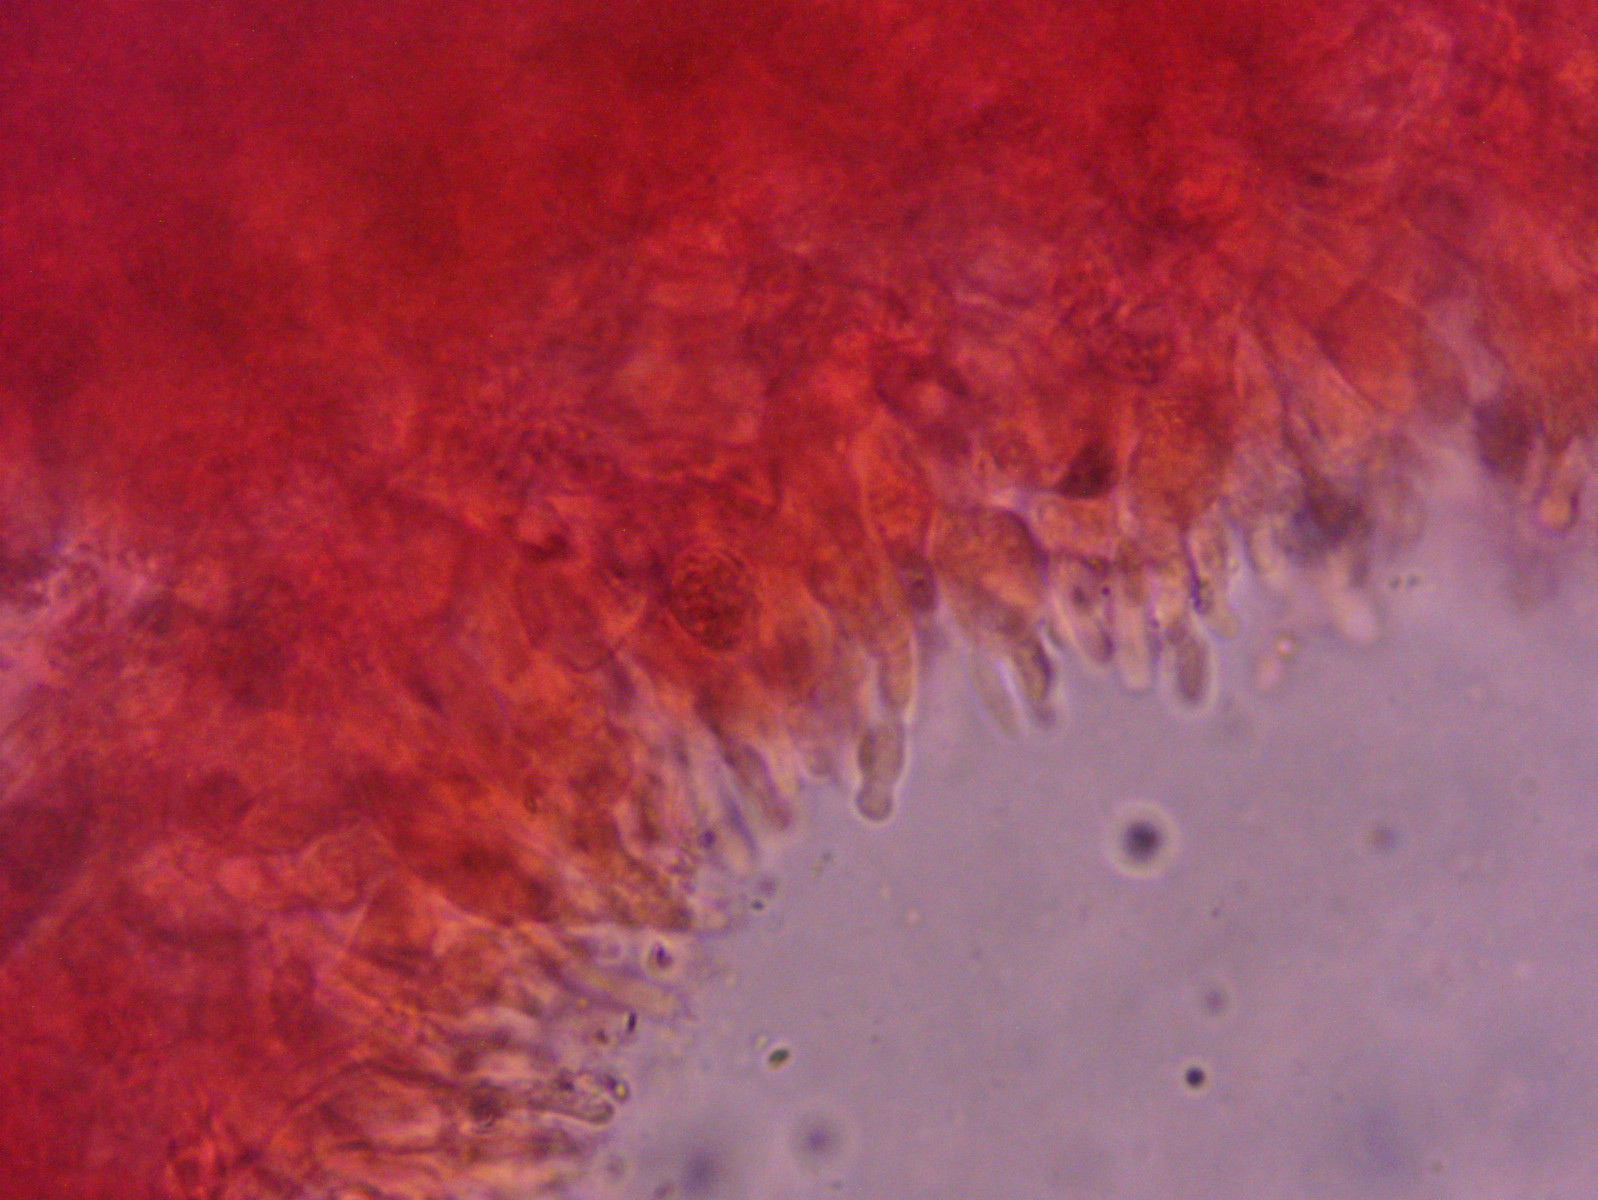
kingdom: Fungi
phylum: Basidiomycota
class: Agaricomycetes
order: Agaricales
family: Mycenaceae
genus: Mycena
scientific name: Mycena vitilis
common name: blankstokket huesvamp
